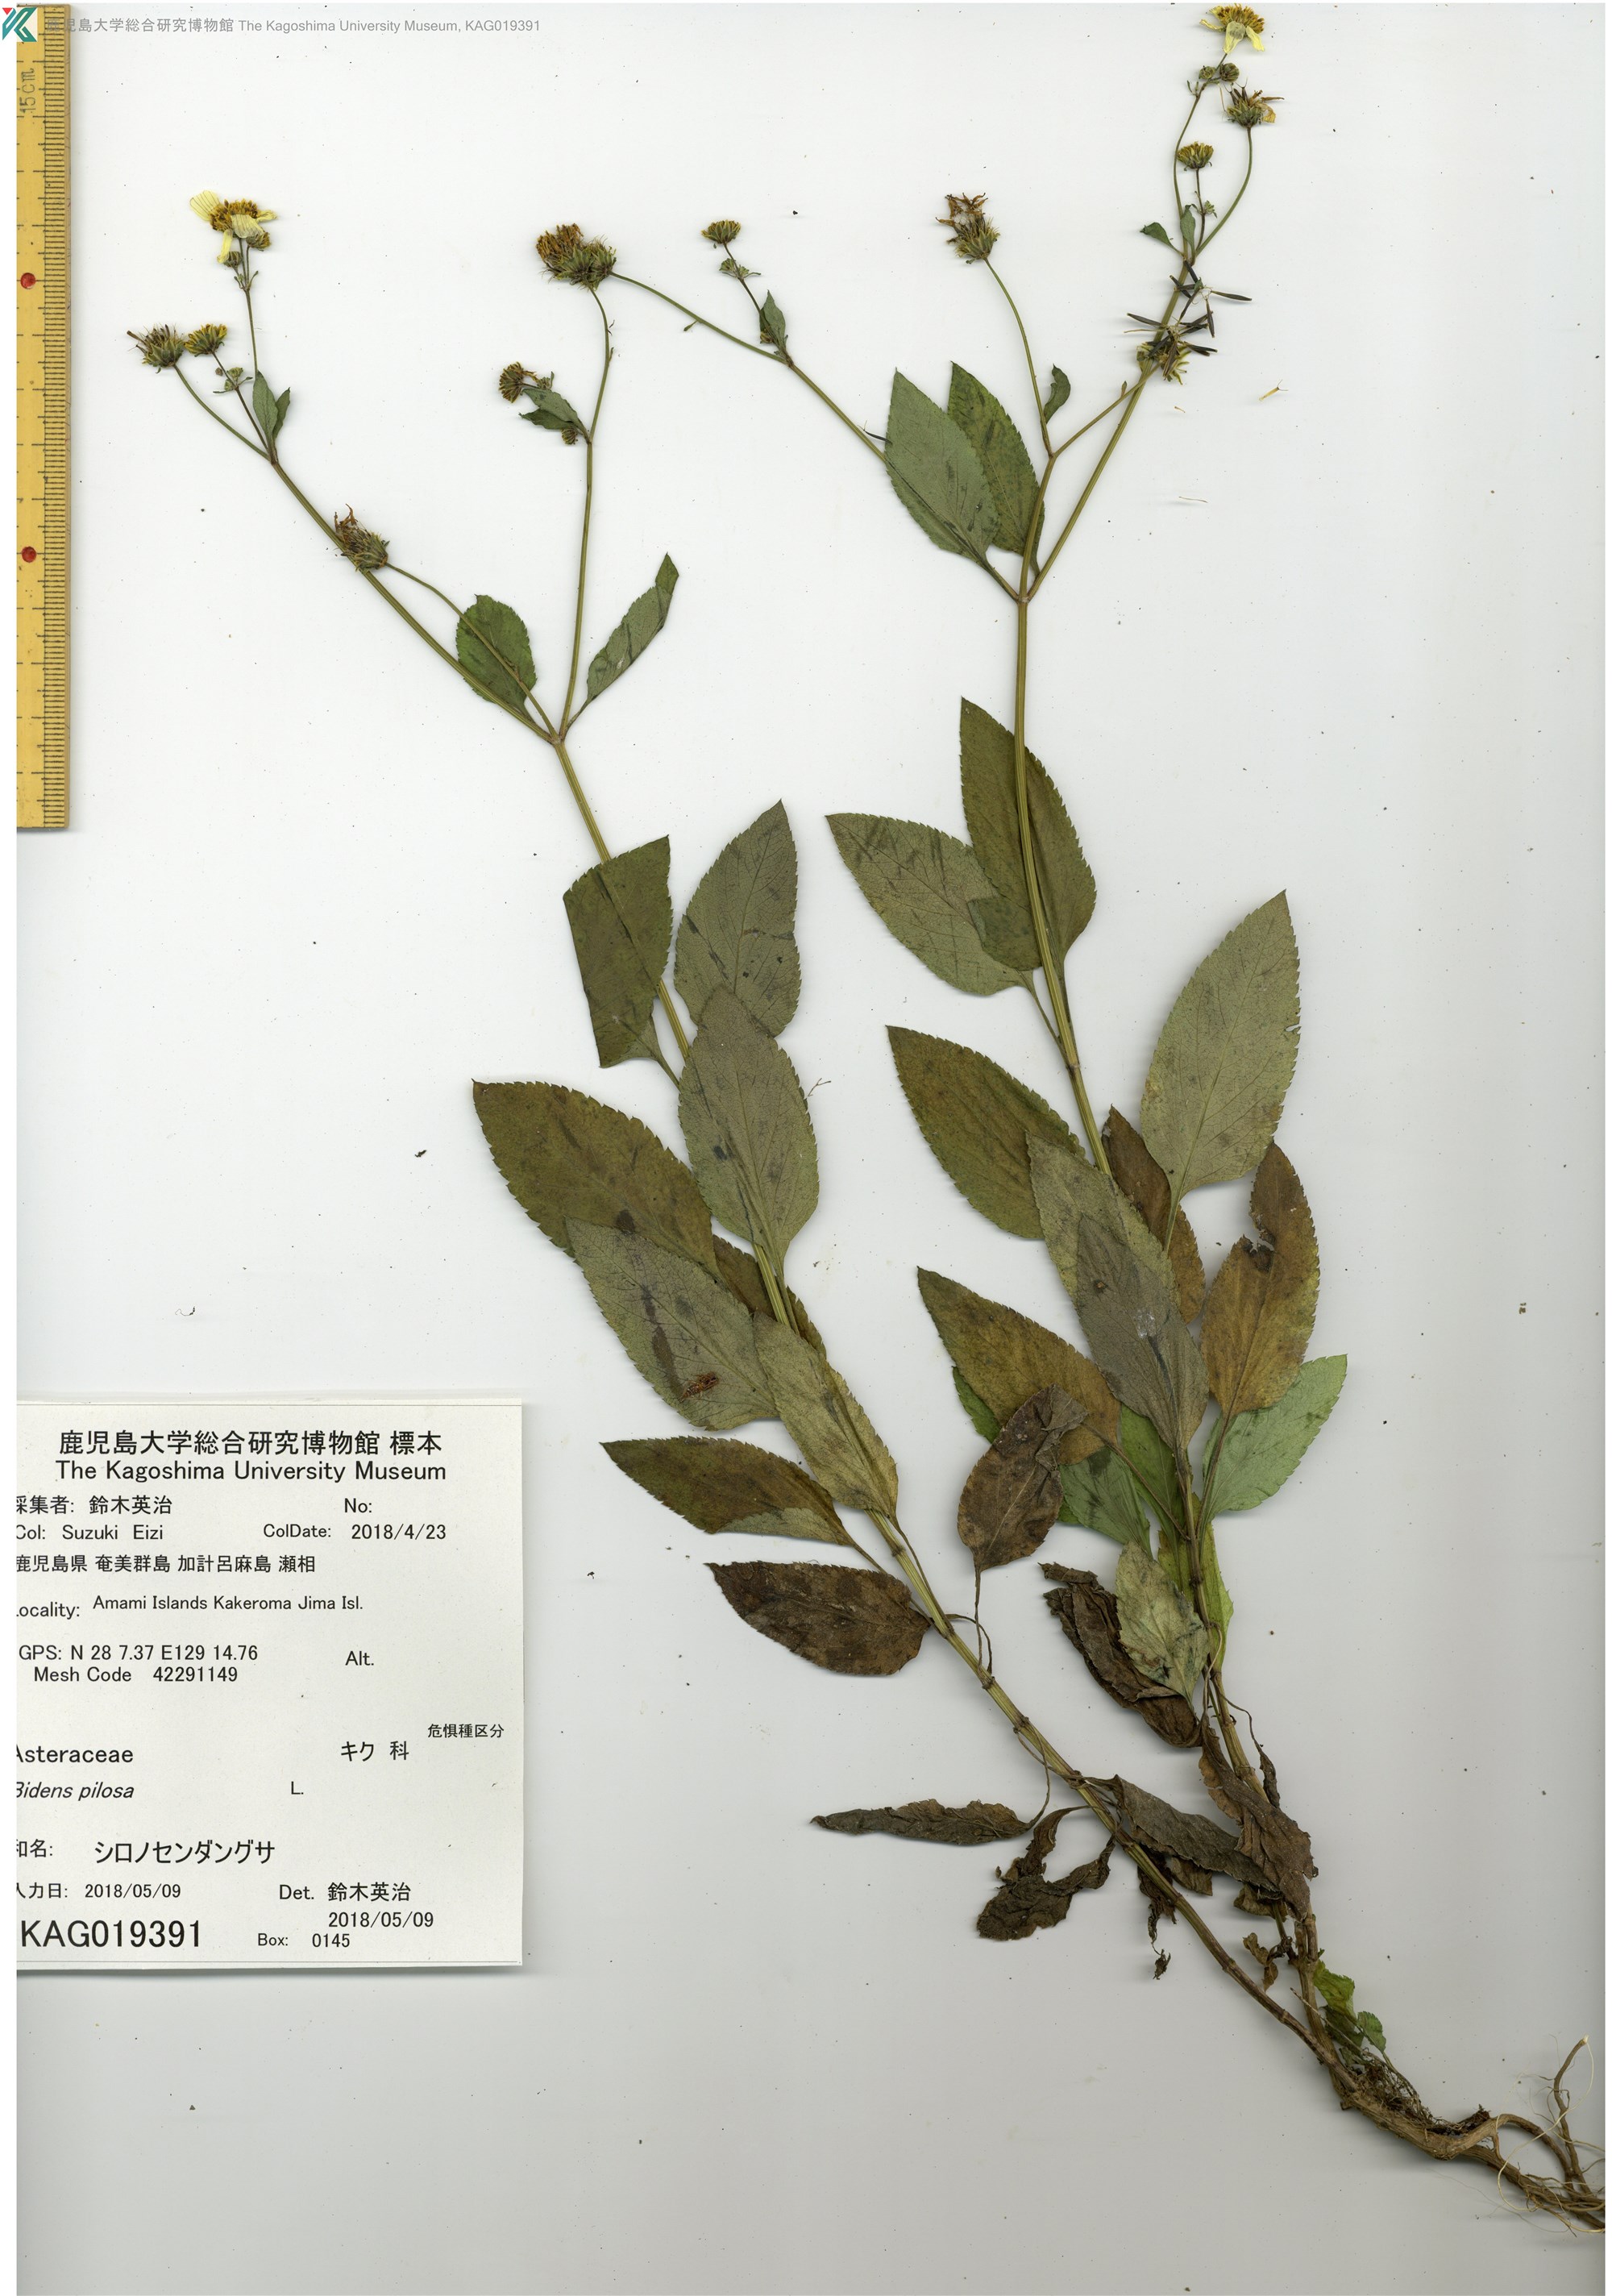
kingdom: Plantae
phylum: Tracheophyta
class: Magnoliopsida
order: Asterales
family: Asteraceae
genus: Bidens
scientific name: Bidens pilosa
